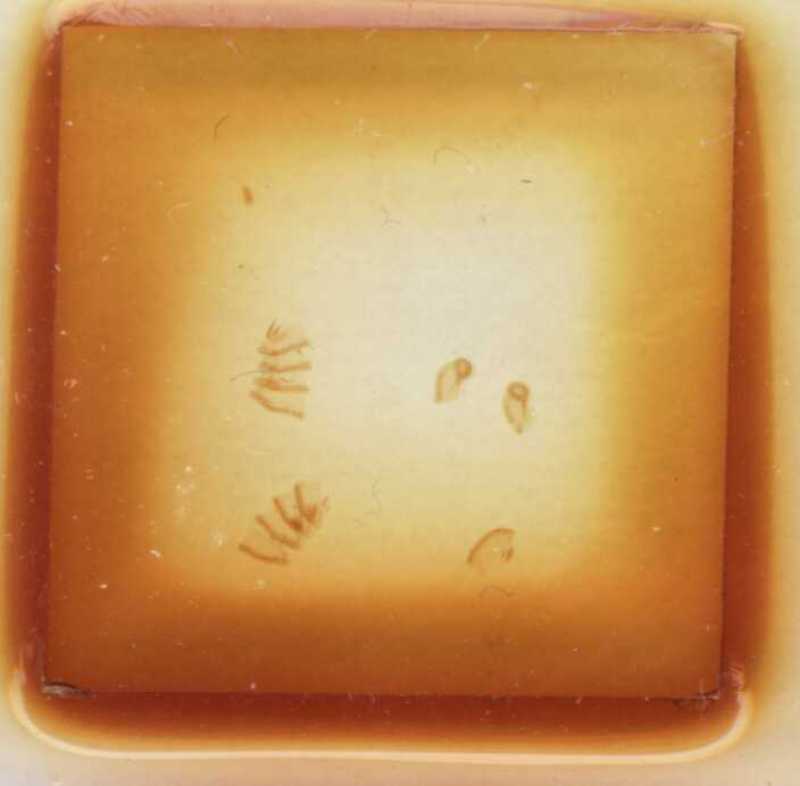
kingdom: Animalia
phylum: Arthropoda
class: Diplopoda
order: Glomerida
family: Glomeridae
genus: Trachysphaera
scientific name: Trachysphaera pyrenaica
